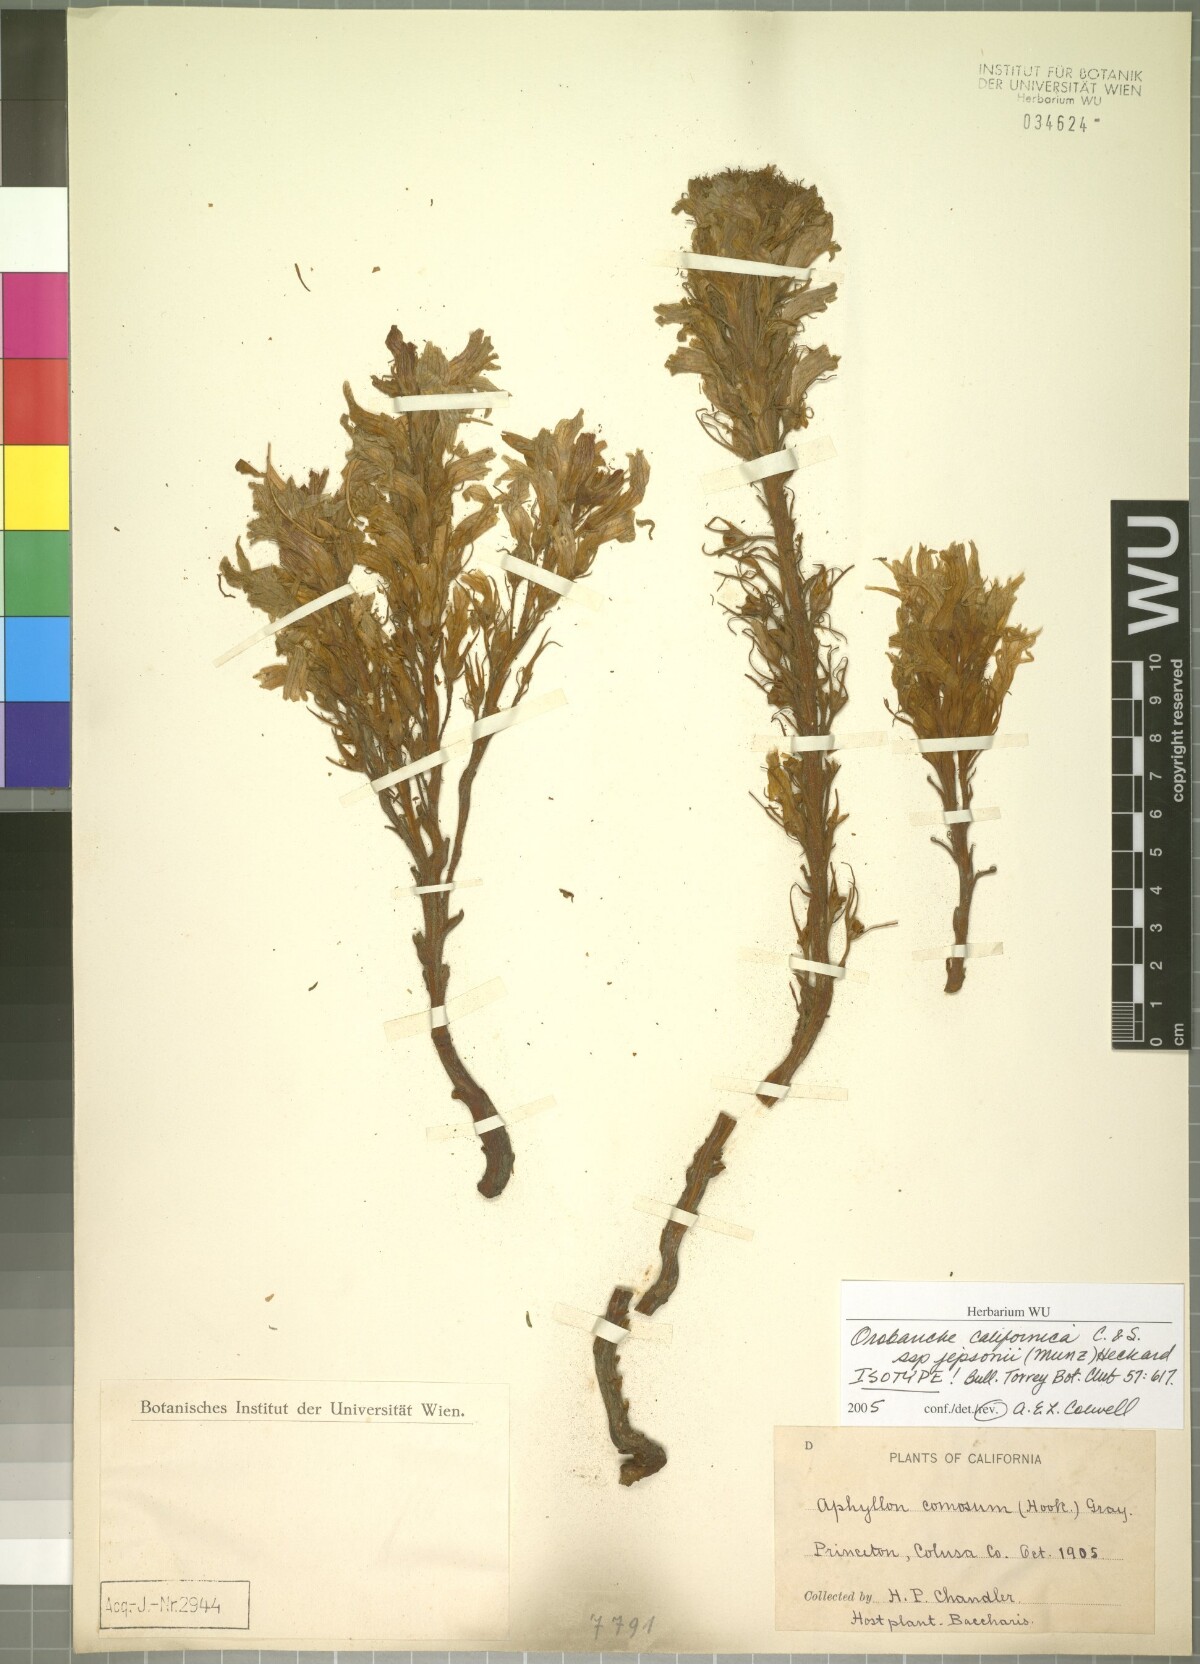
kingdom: Plantae
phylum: Tracheophyta
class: Magnoliopsida
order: Lamiales
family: Orobanchaceae
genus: Aphyllon
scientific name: Aphyllon californicum
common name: California broomrape
